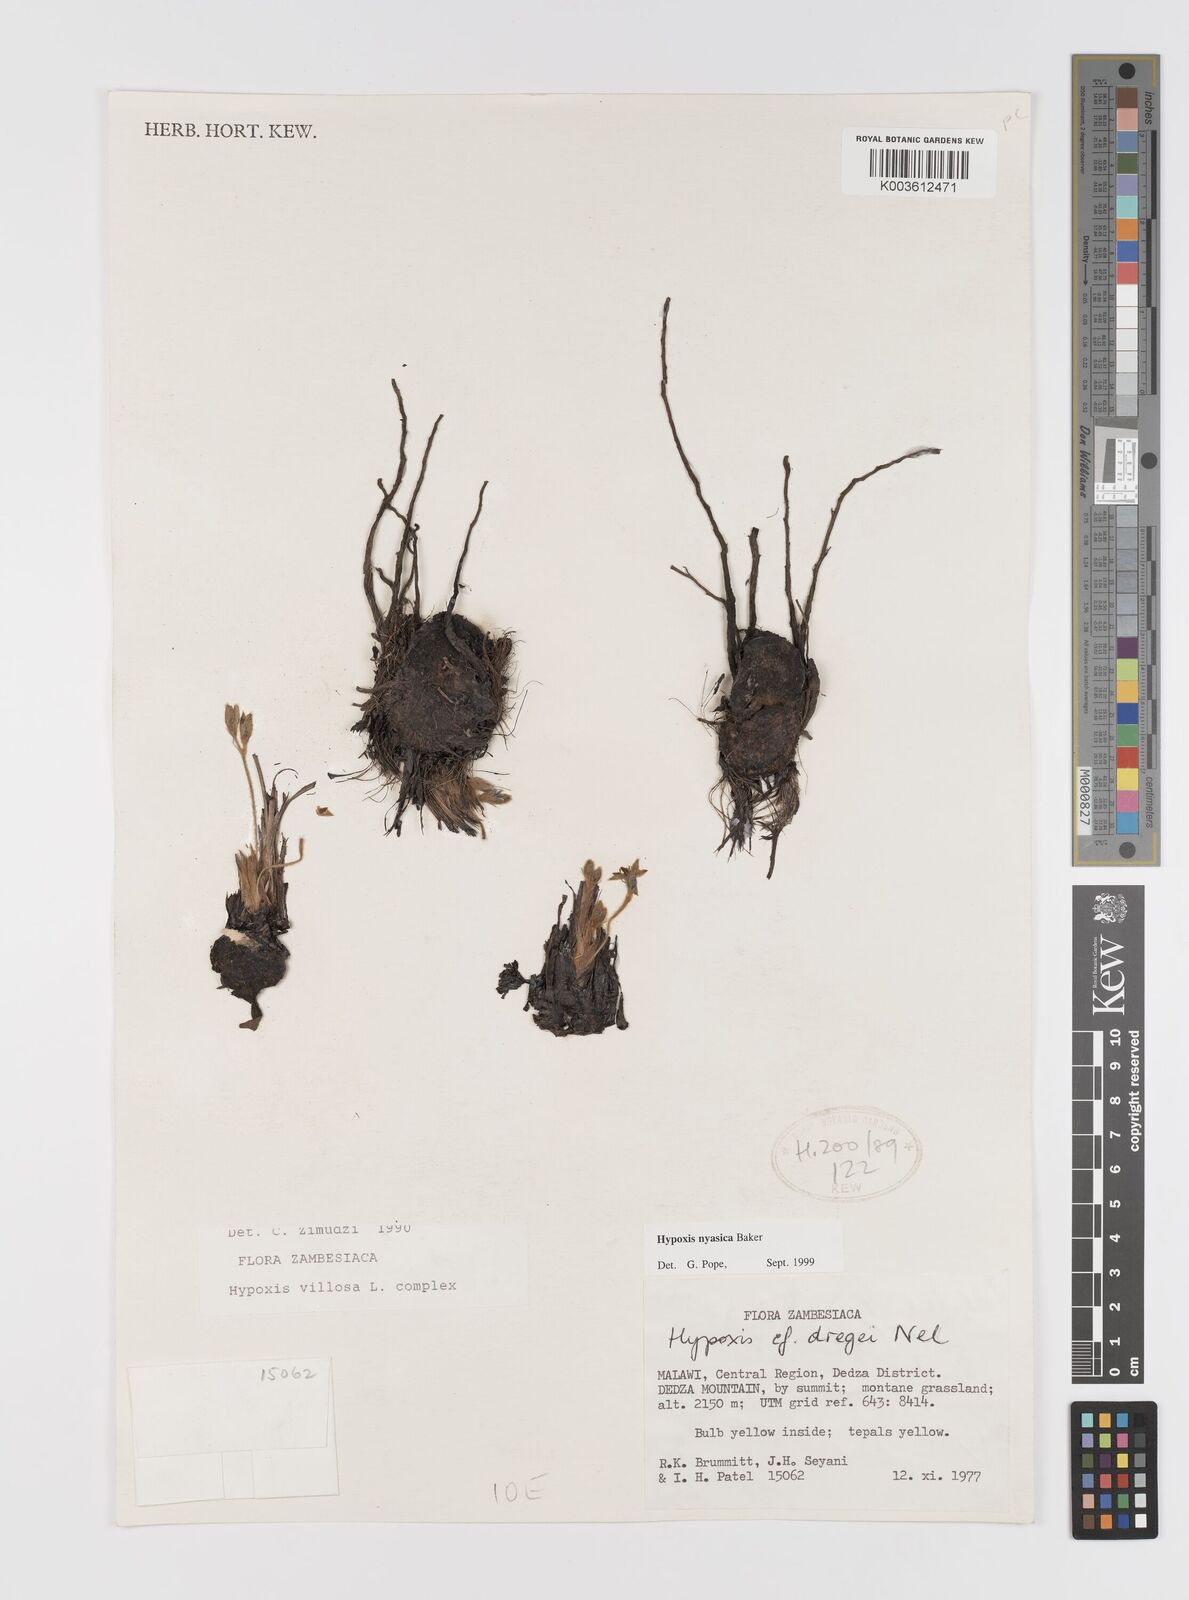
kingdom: Plantae
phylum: Tracheophyta
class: Liliopsida
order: Asparagales
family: Hypoxidaceae
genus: Hypoxis
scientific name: Hypoxis nyasica
